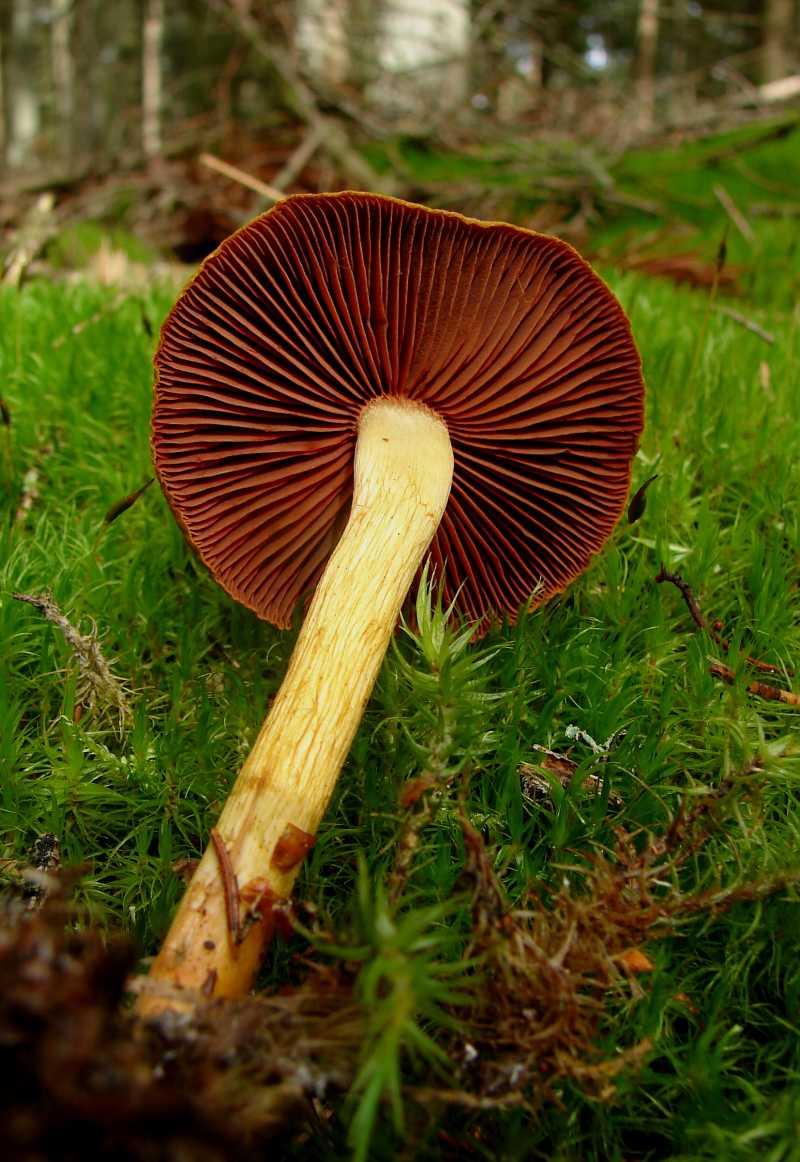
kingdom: Fungi
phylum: Basidiomycota
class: Agaricomycetes
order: Agaricales
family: Cortinariaceae
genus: Cortinarius
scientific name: Cortinarius
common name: cinnoberbladet slørhat
